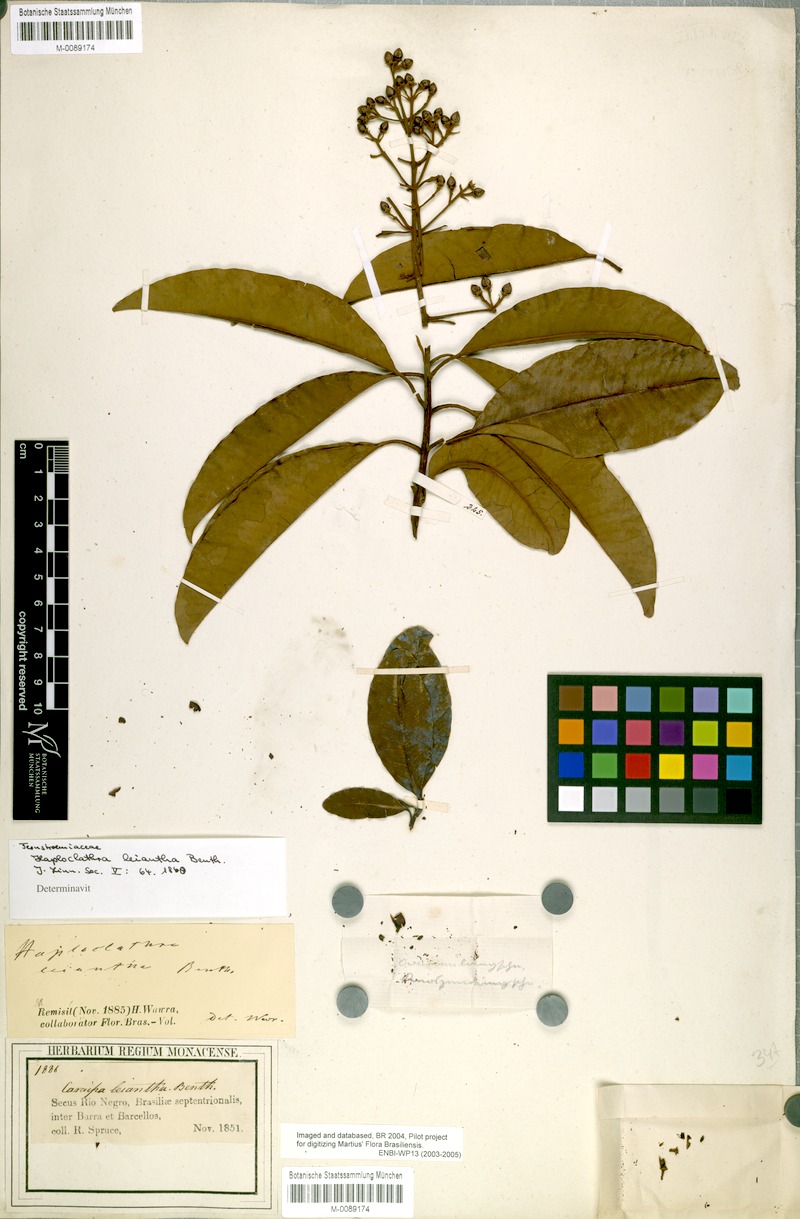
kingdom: Plantae
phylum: Tracheophyta
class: Magnoliopsida
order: Malpighiales
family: Calophyllaceae
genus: Haploclathra
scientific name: Haploclathra leiantha
